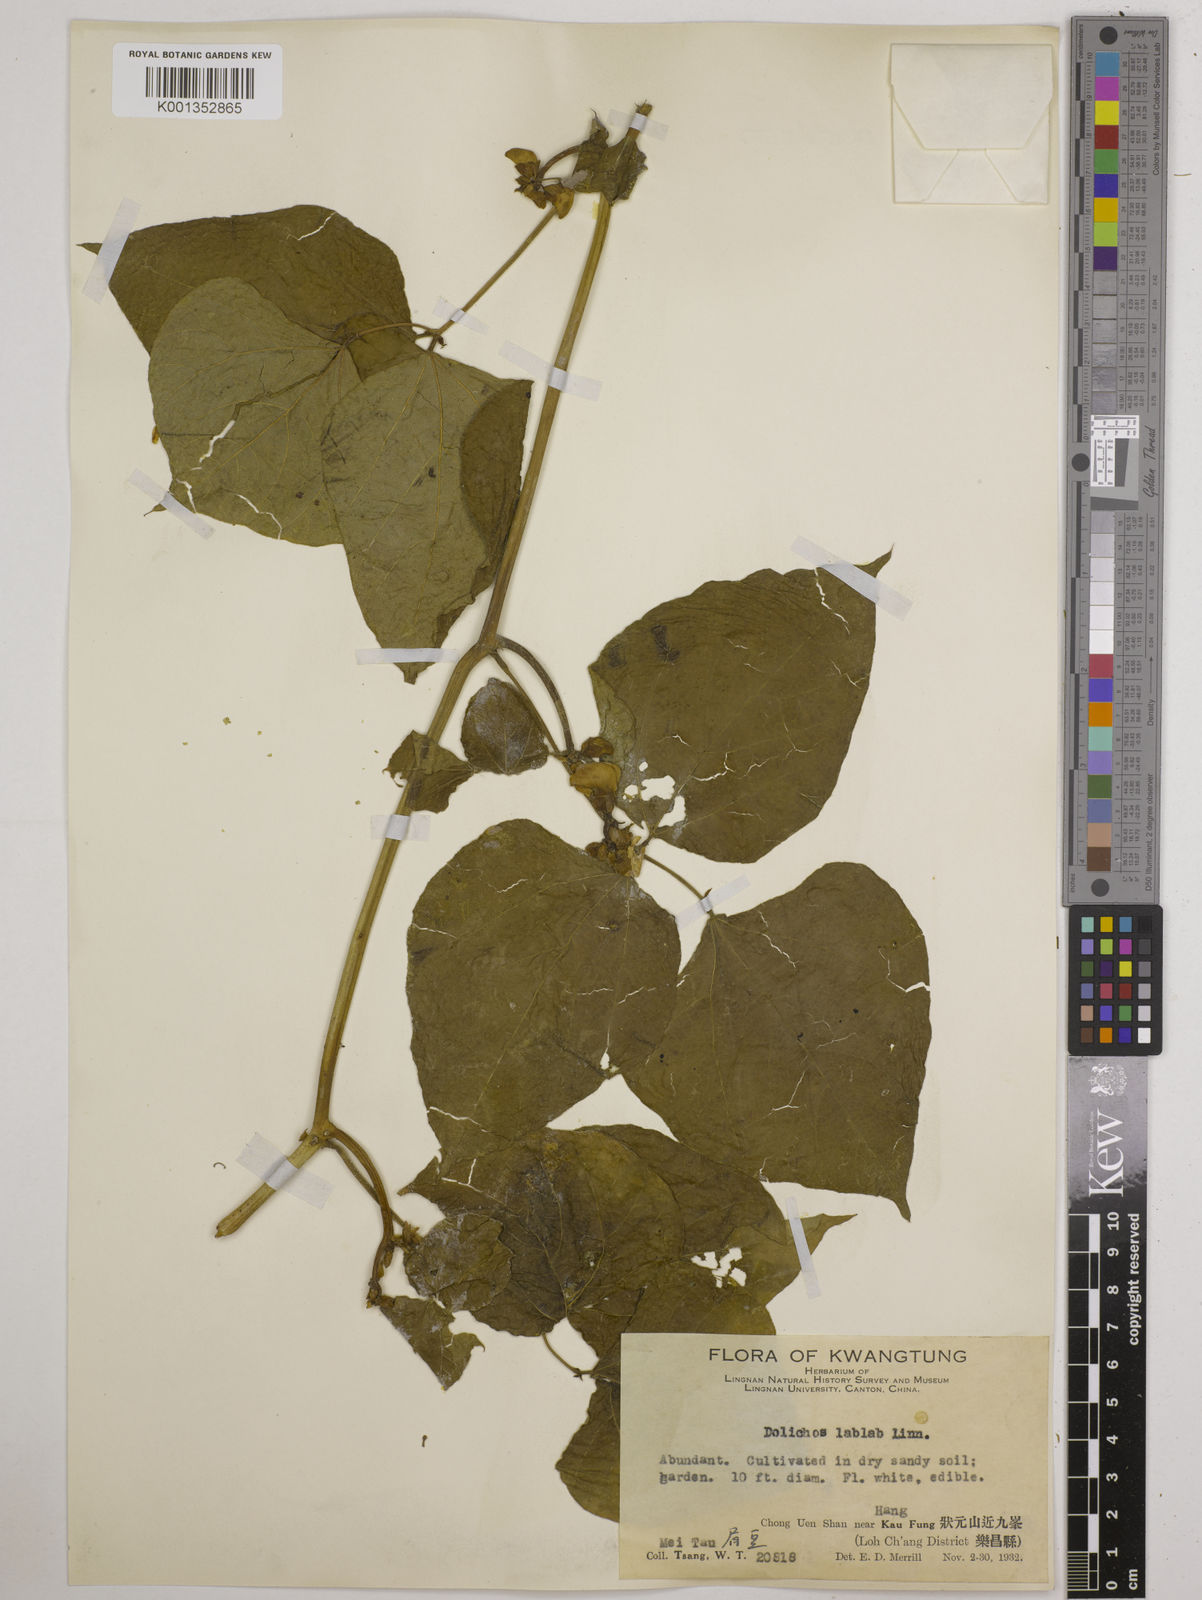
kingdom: Plantae
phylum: Tracheophyta
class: Magnoliopsida
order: Fabales
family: Fabaceae
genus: Lablab
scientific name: Lablab purpureus
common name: Lablab-bean
